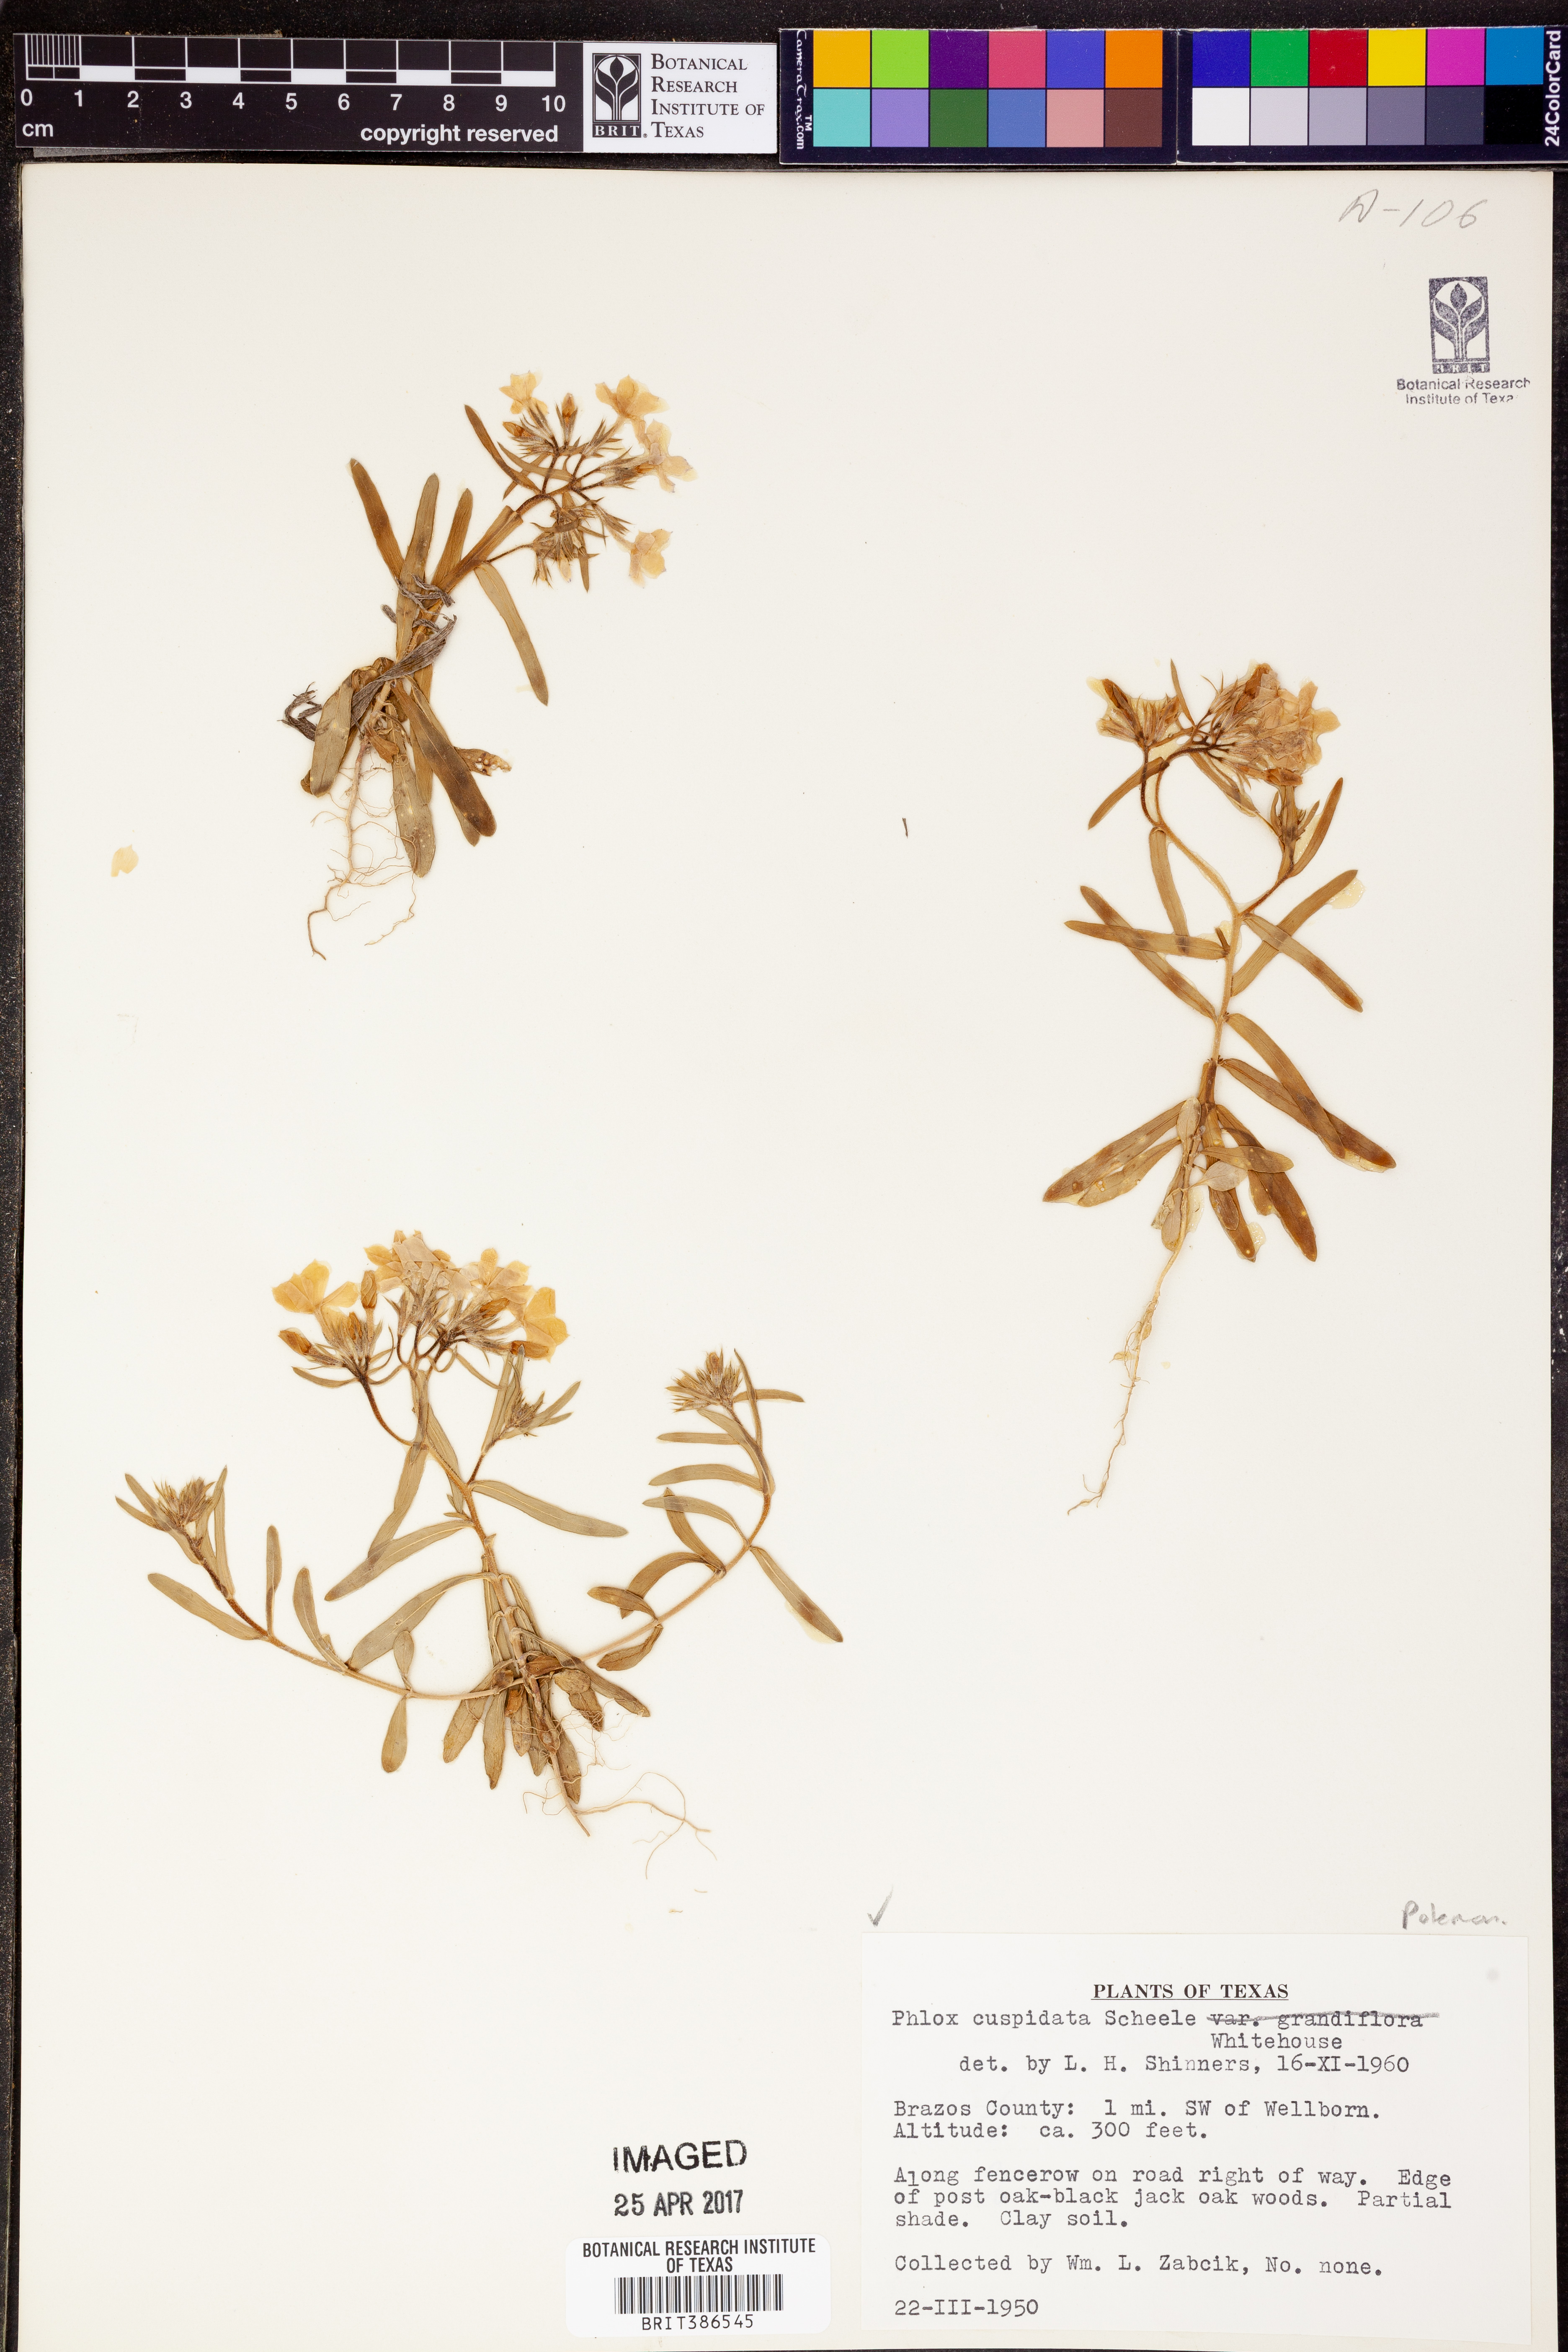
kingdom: Plantae
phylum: Tracheophyta
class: Magnoliopsida
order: Ericales
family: Polemoniaceae
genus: Phlox
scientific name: Phlox cuspidata
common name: Pointed phlox
